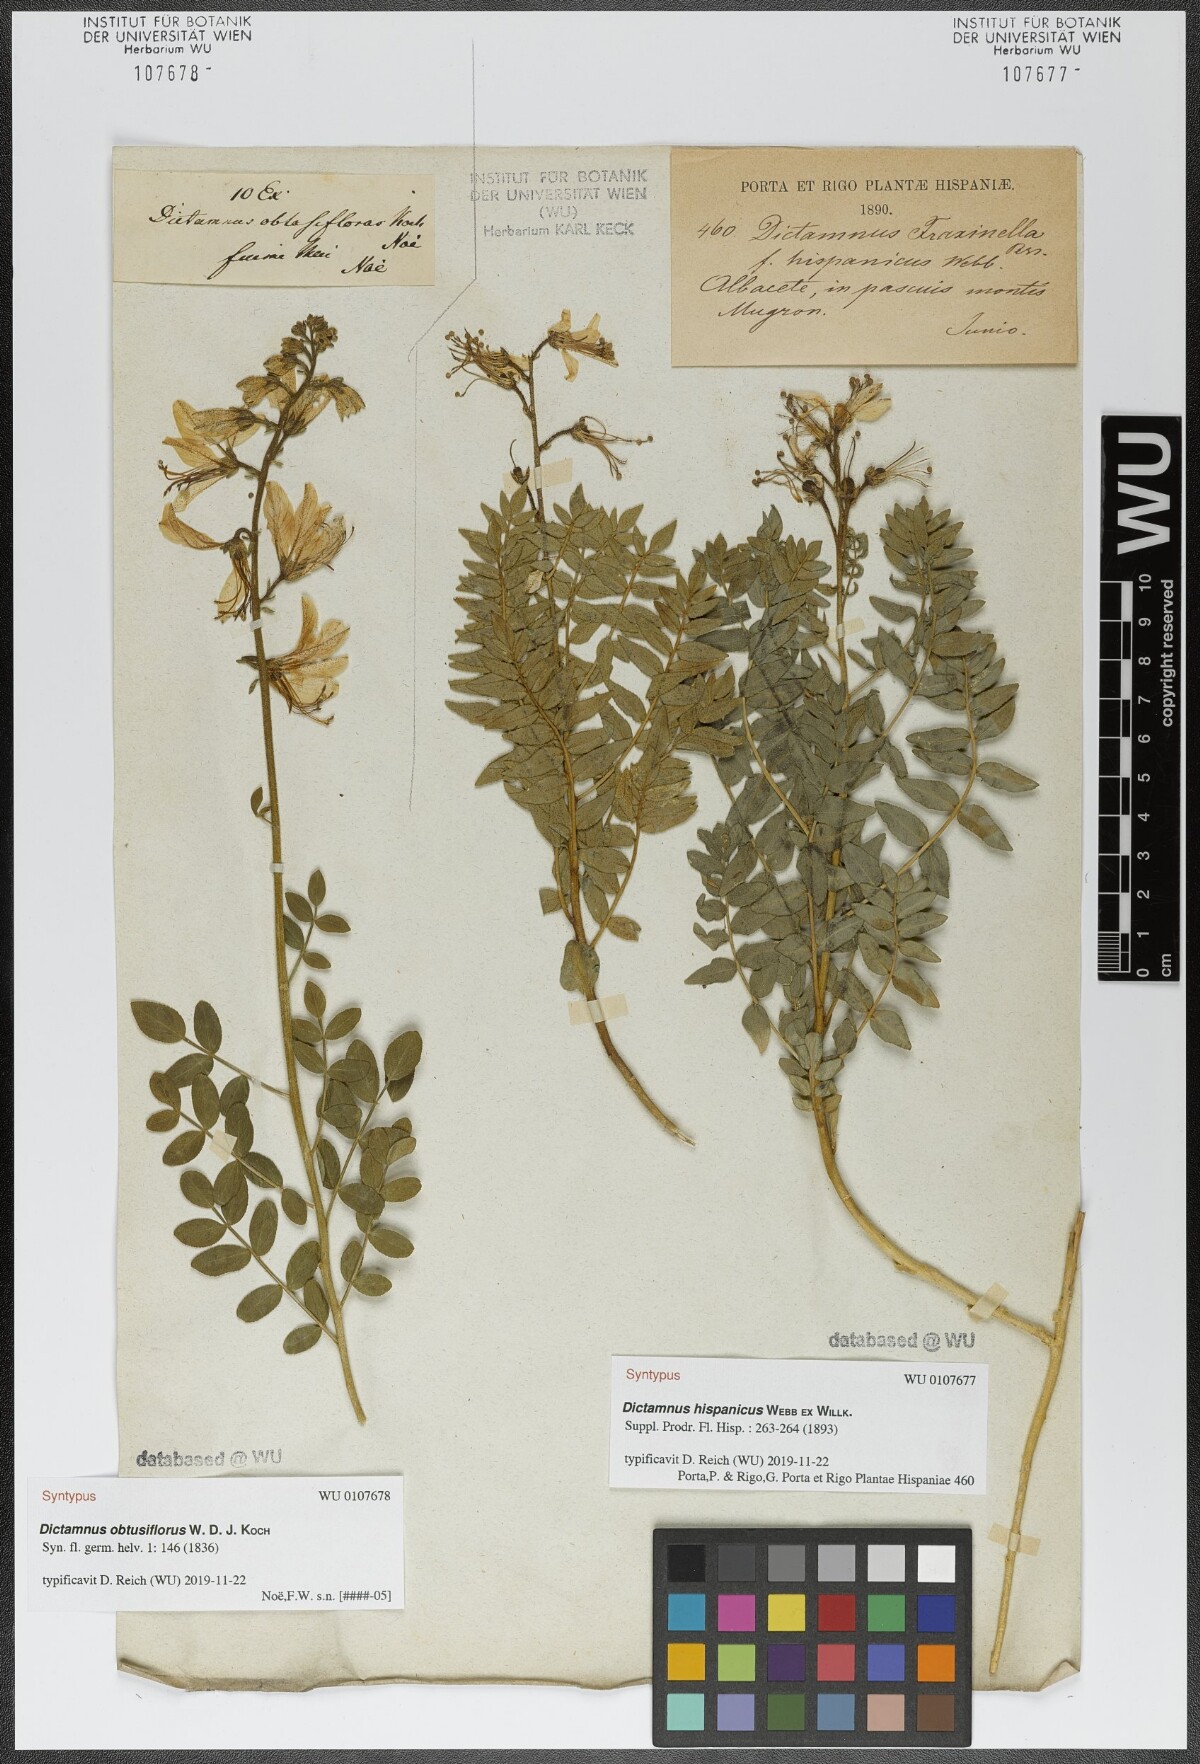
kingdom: Plantae
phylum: Tracheophyta
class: Magnoliopsida
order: Sapindales
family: Rutaceae
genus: Dictamnus
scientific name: Dictamnus hispanicus
